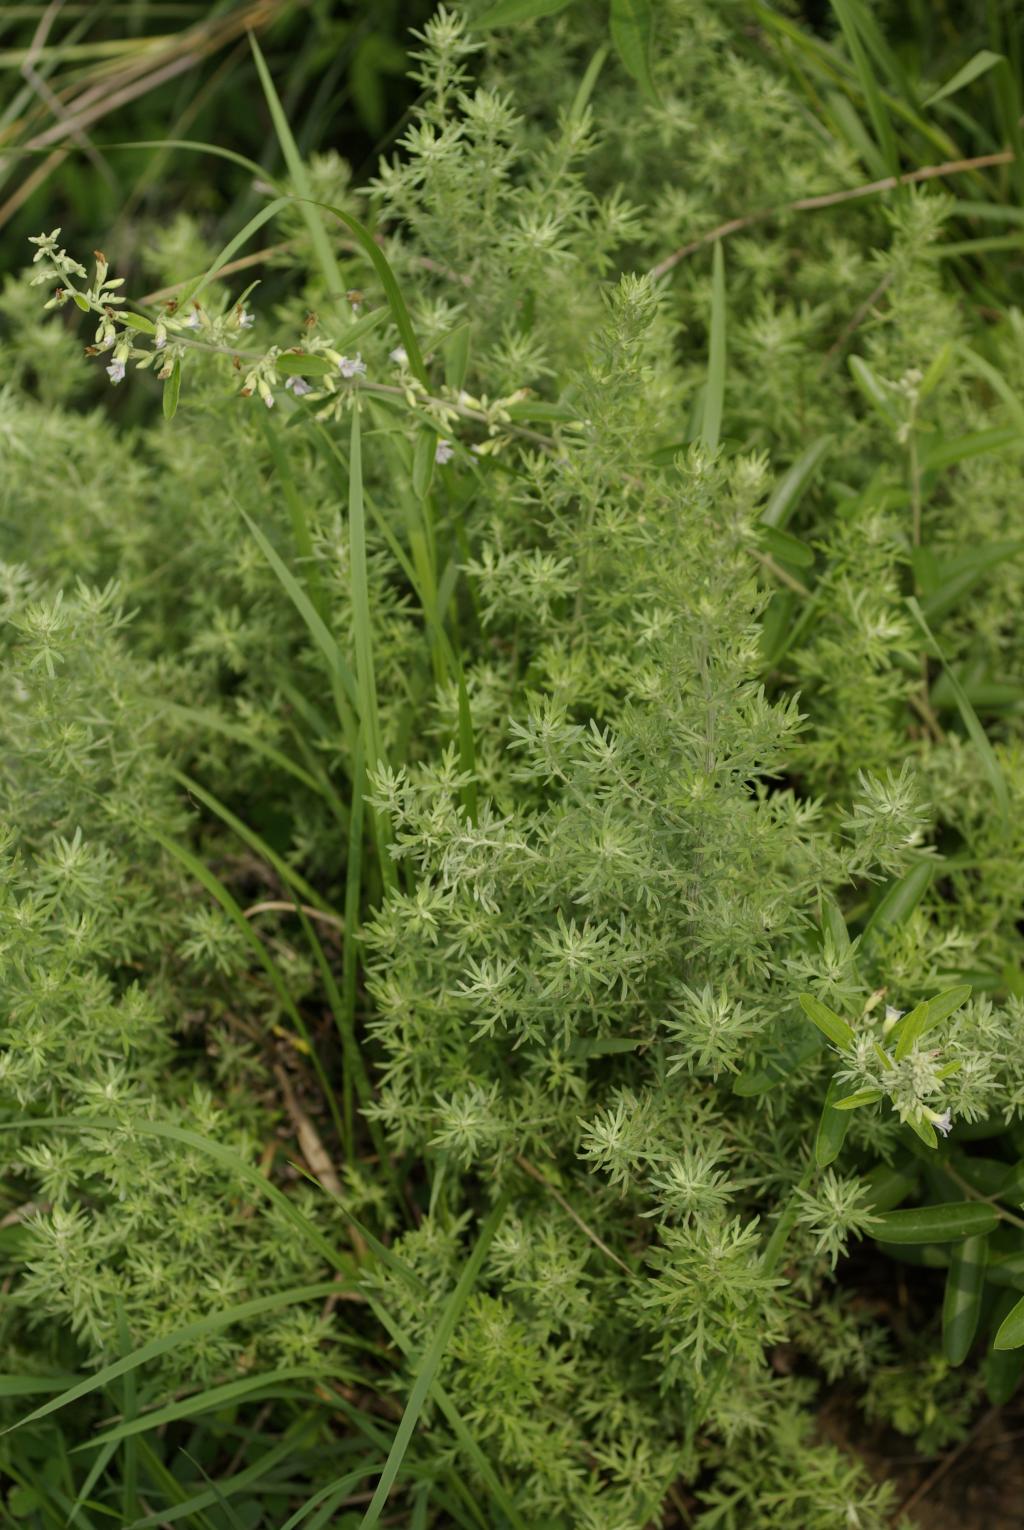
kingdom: Plantae
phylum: Tracheophyta
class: Magnoliopsida
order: Asterales
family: Asteraceae
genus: Artemisia
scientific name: Artemisia lancea
